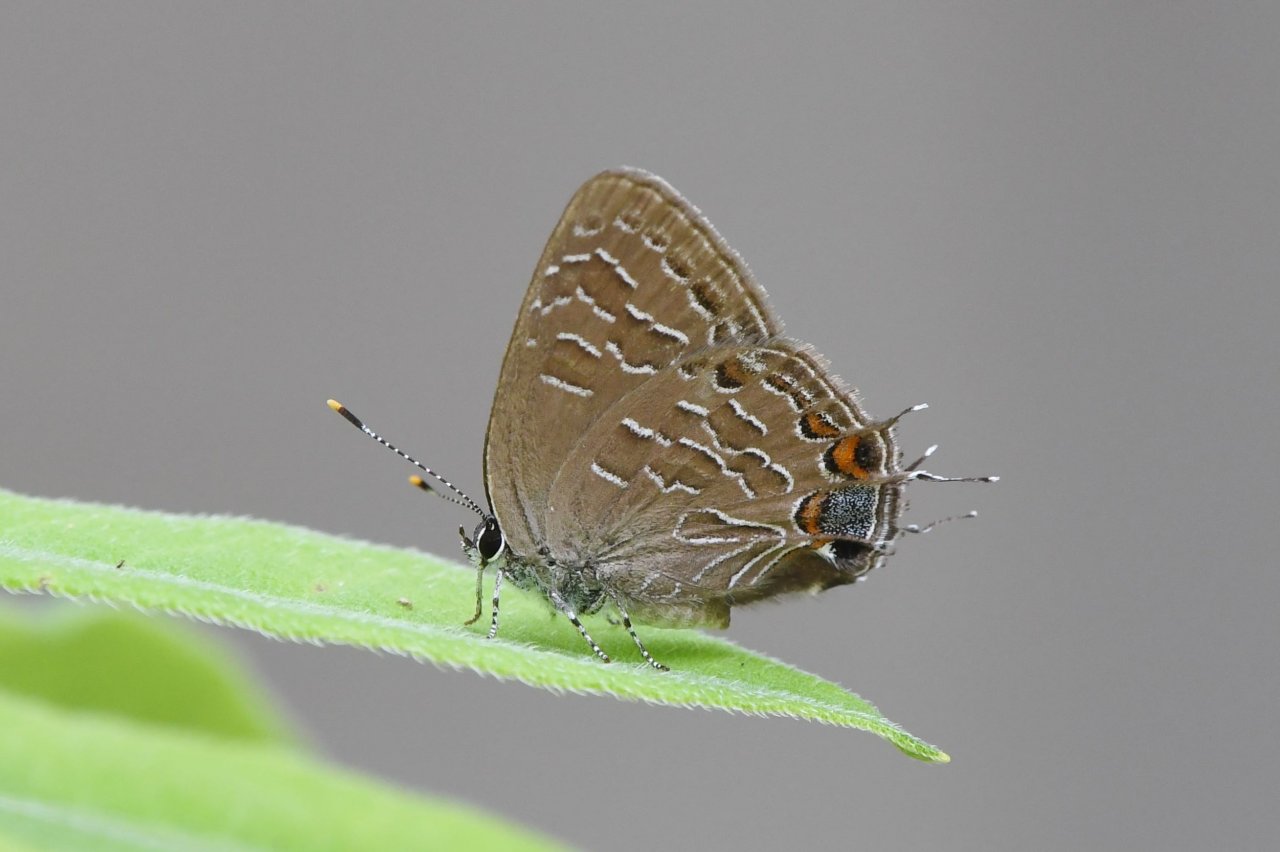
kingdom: Animalia
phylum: Arthropoda
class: Insecta
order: Lepidoptera
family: Lycaenidae
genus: Satyrium
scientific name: Satyrium liparops
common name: Striped Hairstreak
